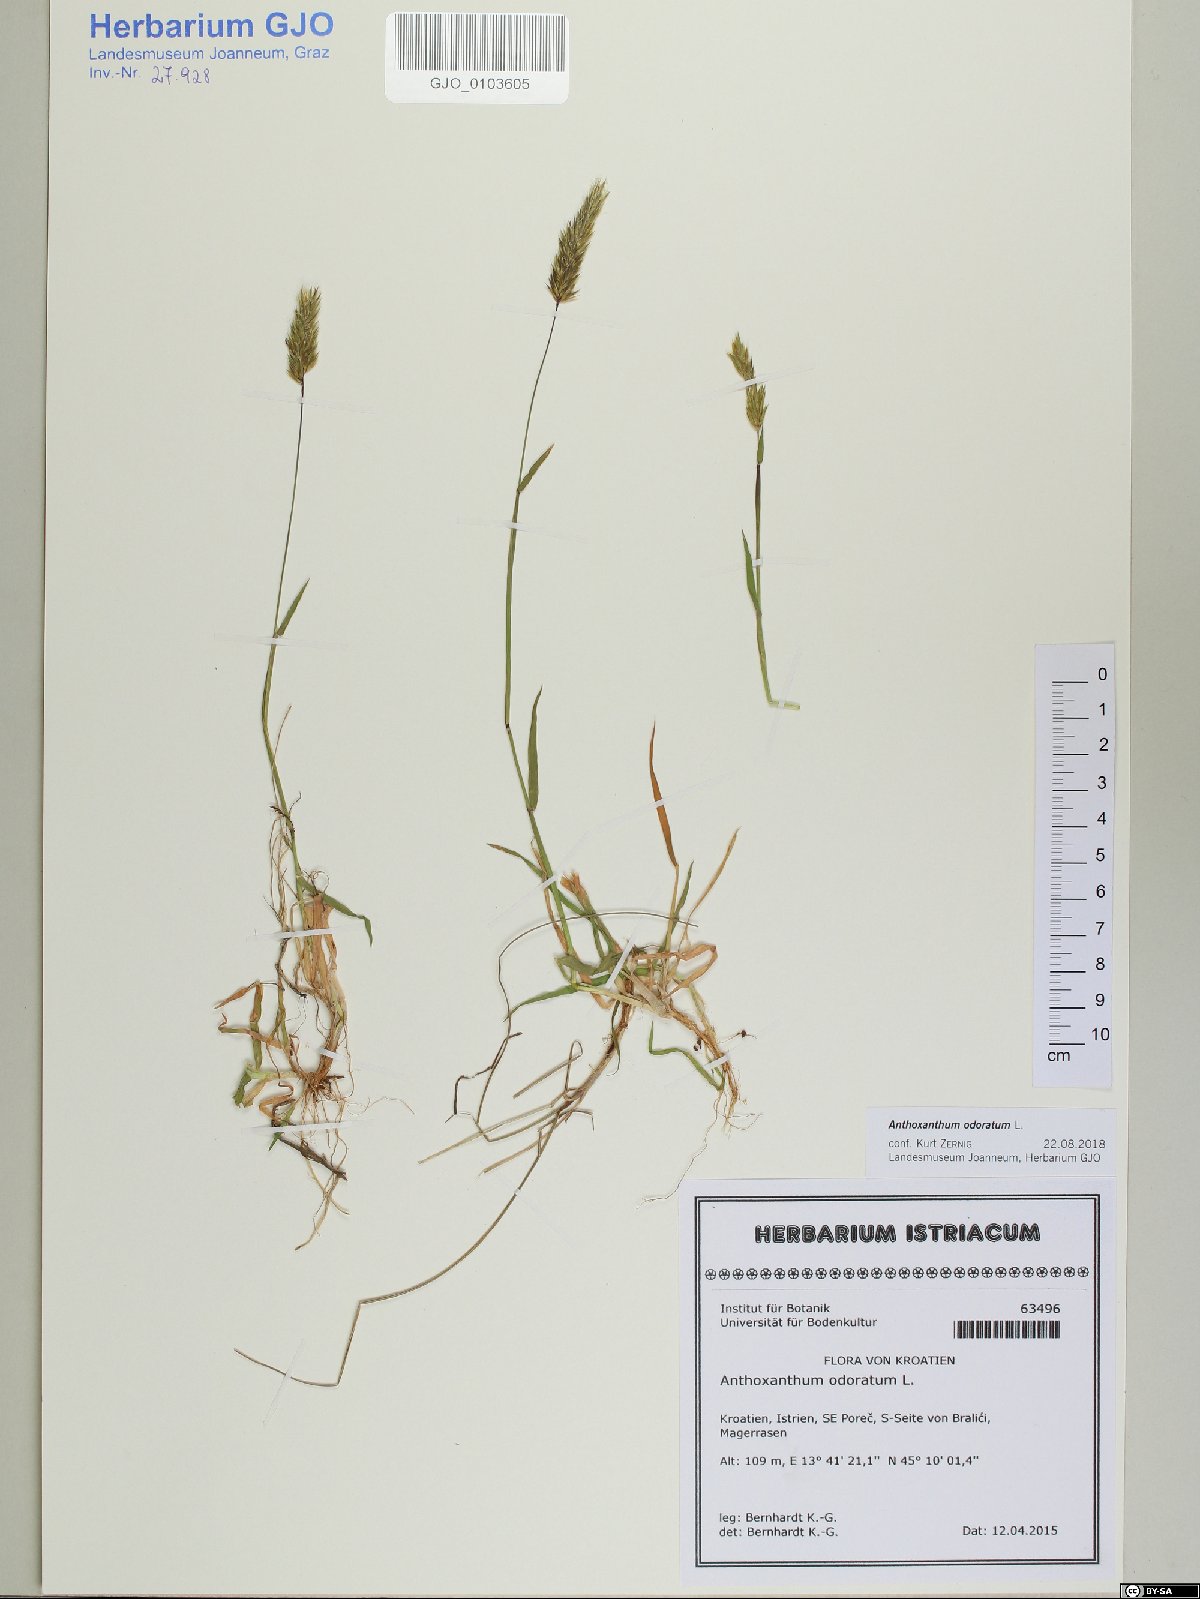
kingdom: Plantae
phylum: Tracheophyta
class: Liliopsida
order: Poales
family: Poaceae
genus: Anthoxanthum
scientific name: Anthoxanthum odoratum
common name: Sweet vernalgrass
